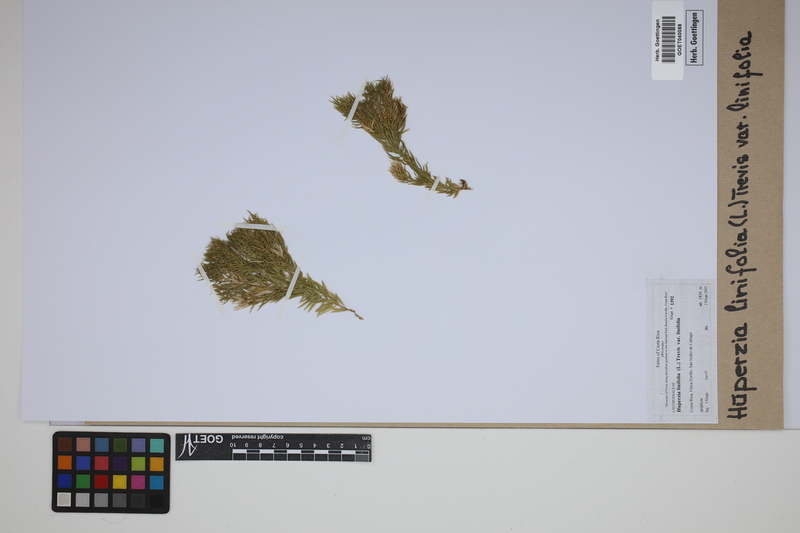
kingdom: Plantae
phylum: Tracheophyta
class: Lycopodiopsida
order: Lycopodiales
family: Lycopodiaceae
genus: Phlegmariurus
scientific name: Phlegmariurus linifolius
